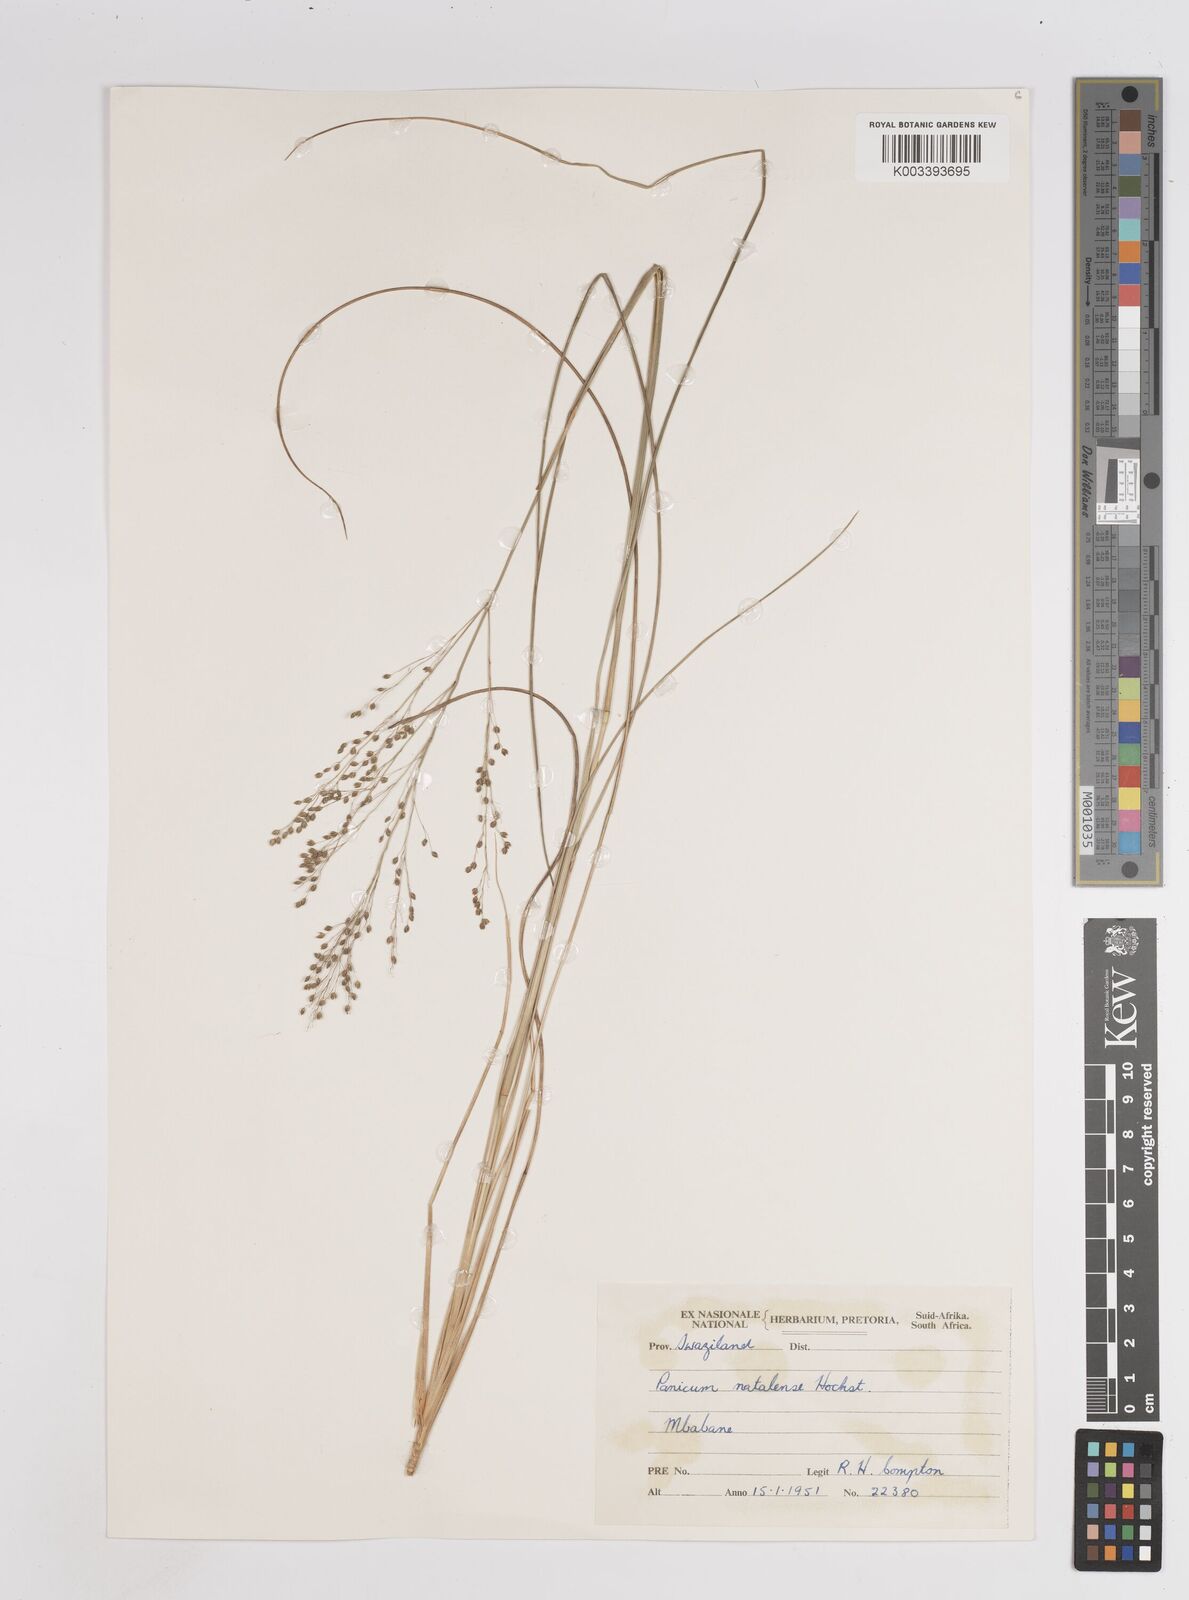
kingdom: Plantae
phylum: Tracheophyta
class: Liliopsida
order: Poales
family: Poaceae
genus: Trichanthecium
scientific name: Trichanthecium natalense
